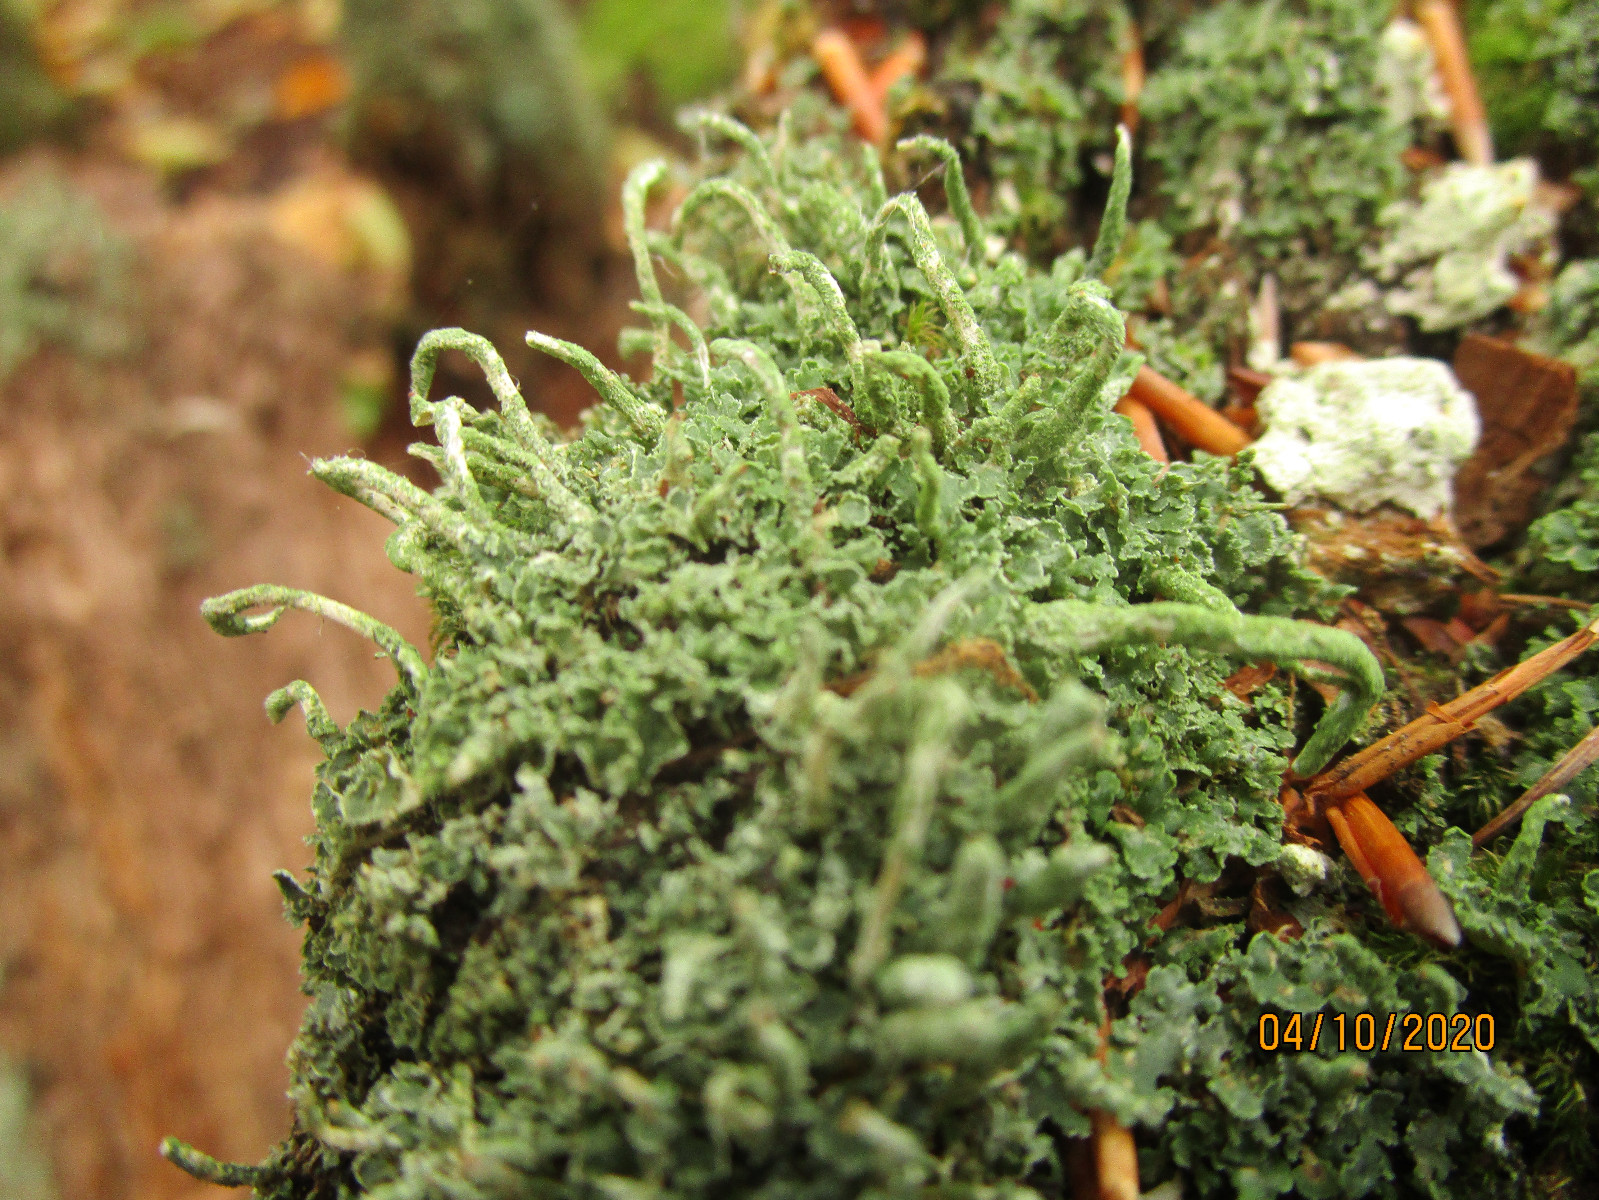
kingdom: Fungi
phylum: Ascomycota
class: Lecanoromycetes
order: Lecanorales
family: Cladoniaceae
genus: Cladonia
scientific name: Cladonia polydactyla
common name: vifte-bægerlav
